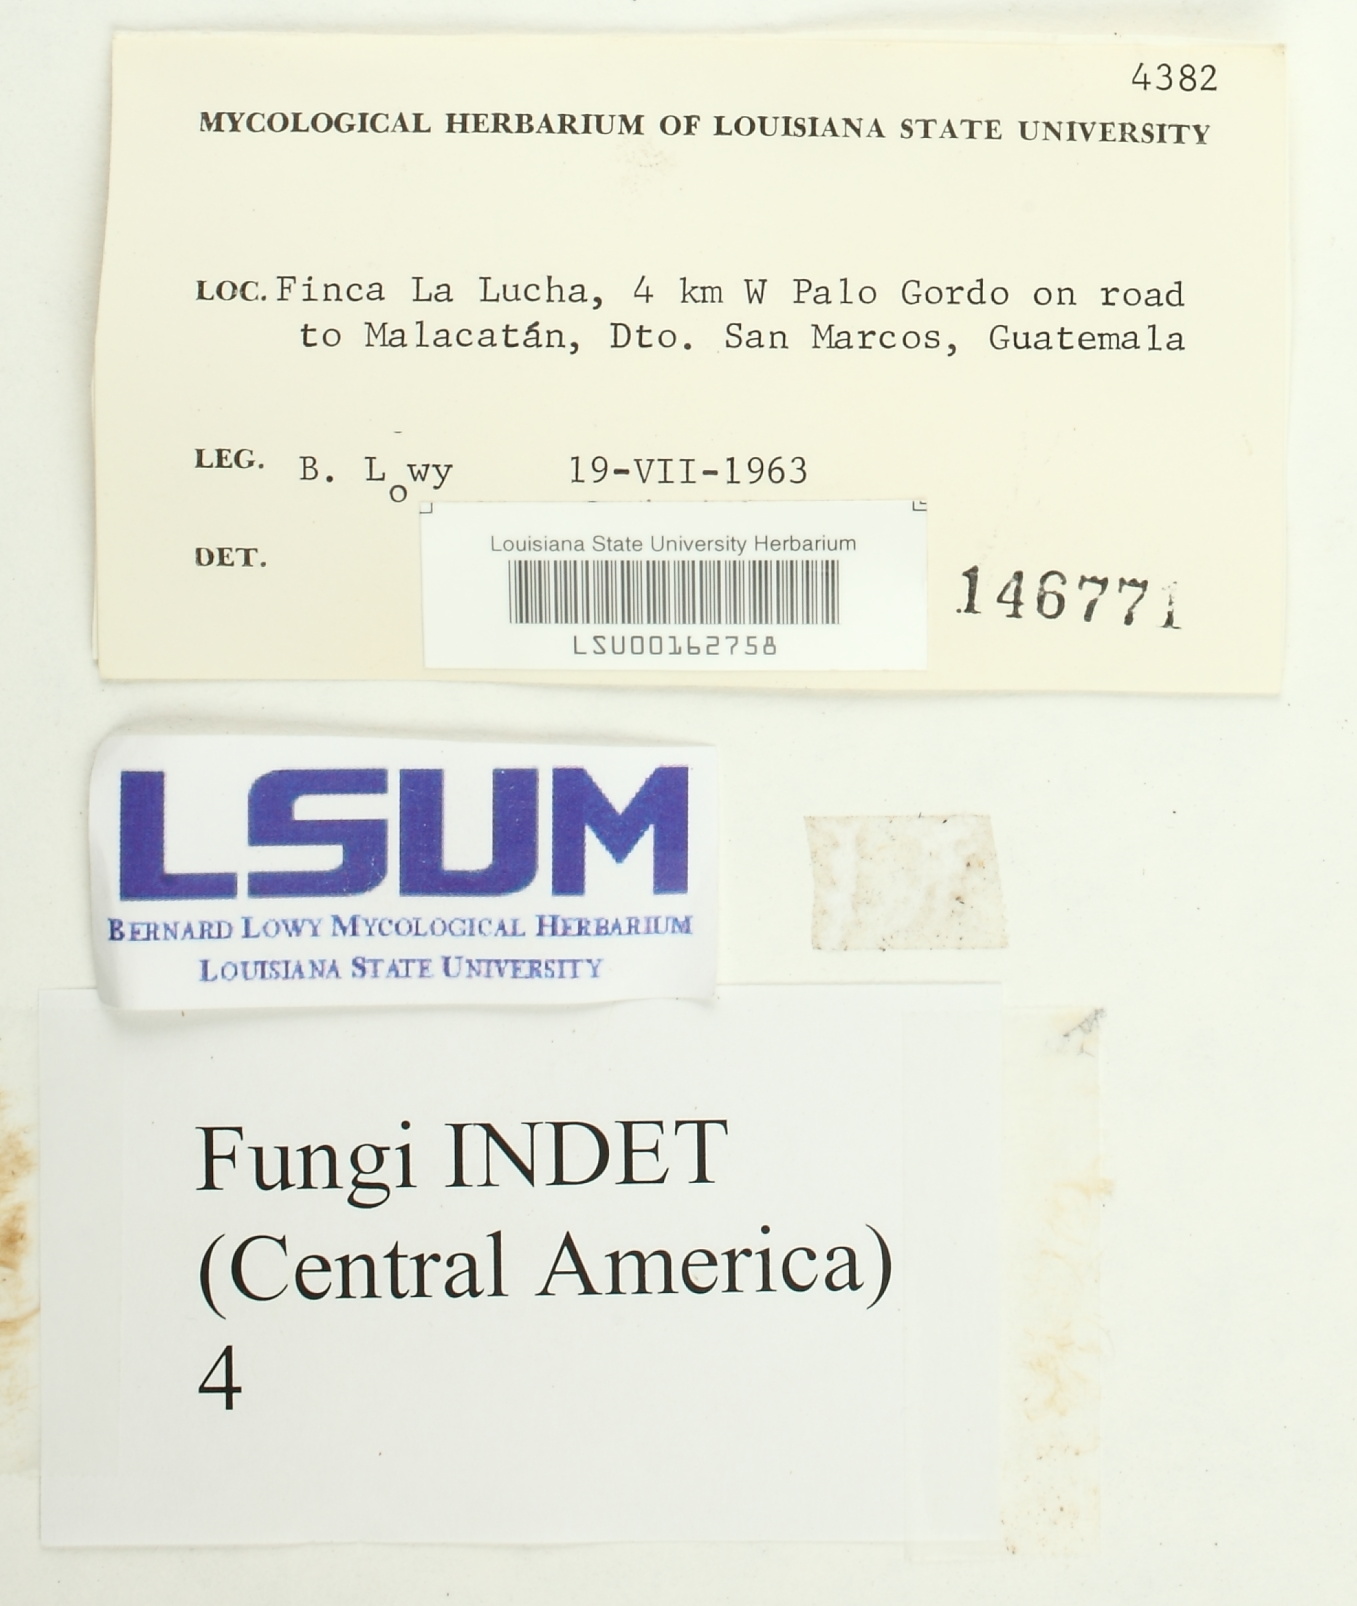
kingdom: Fungi
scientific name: Fungi
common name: Fungi
